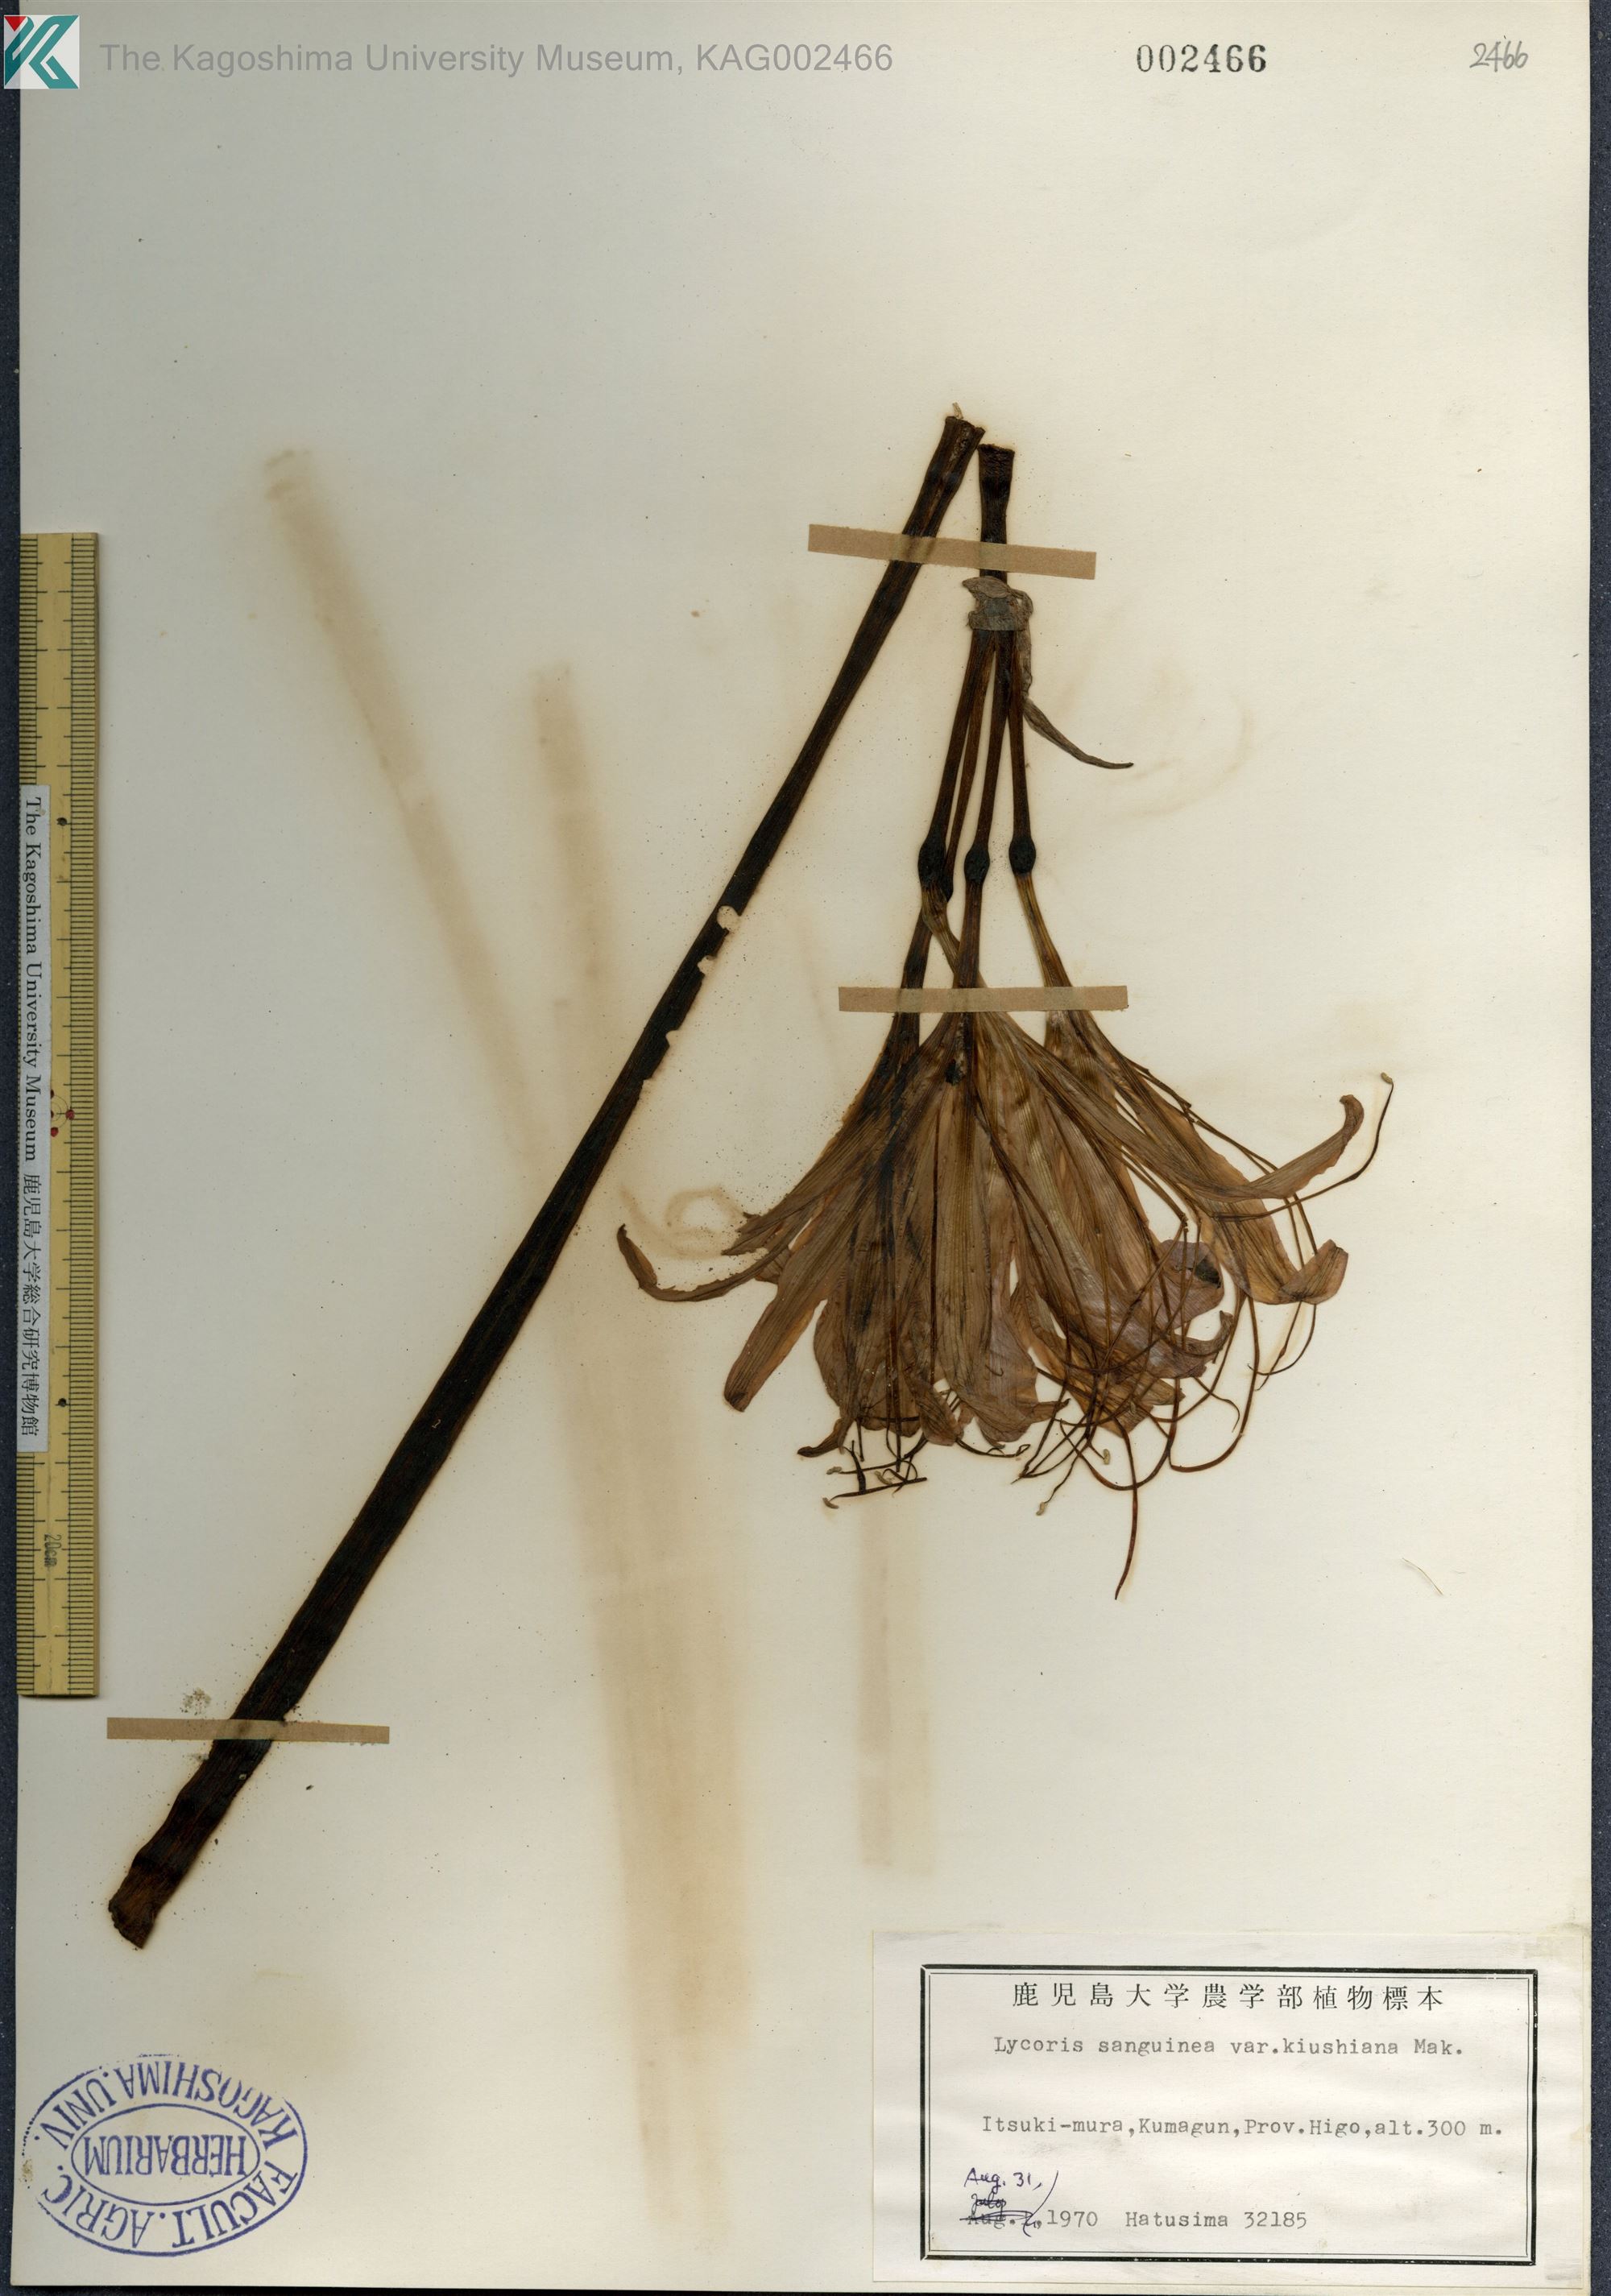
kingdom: Plantae
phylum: Tracheophyta
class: Liliopsida
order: Asparagales
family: Amaryllidaceae
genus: Lycoris
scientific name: Lycoris sanguinea
